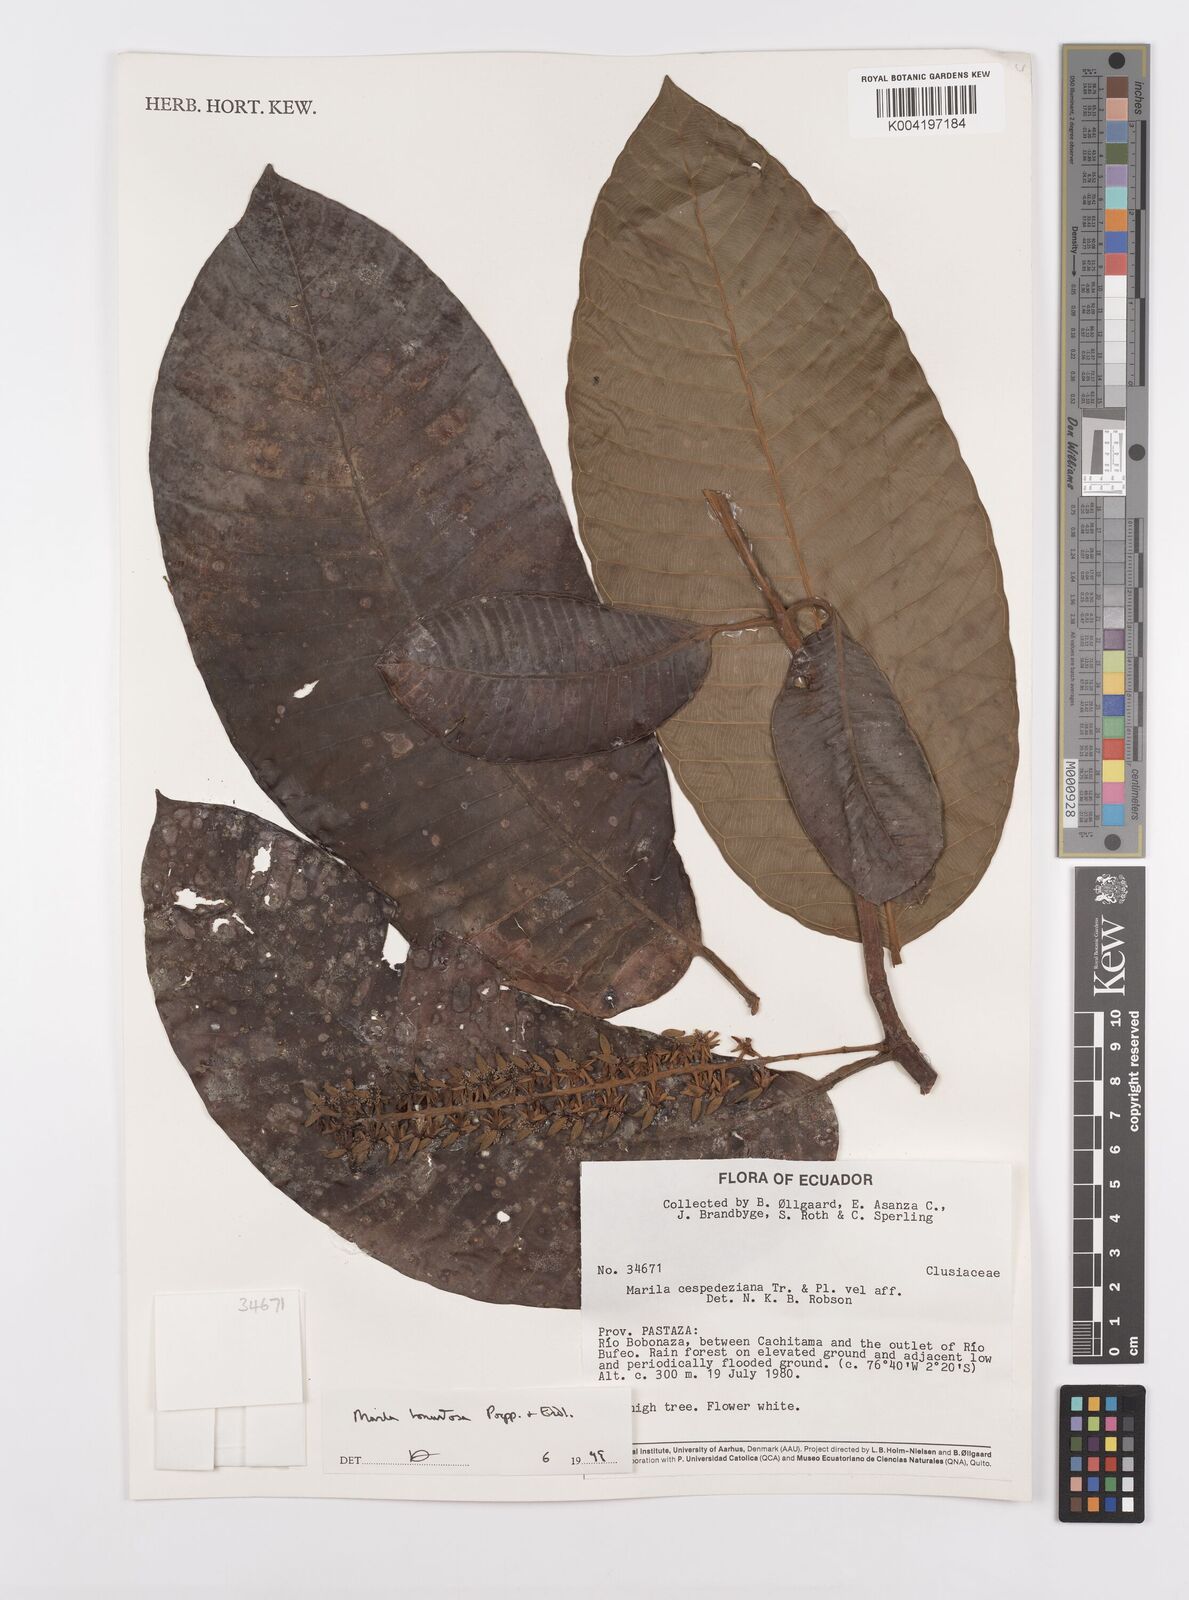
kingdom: Plantae
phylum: Tracheophyta
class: Magnoliopsida
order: Malpighiales
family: Calophyllaceae
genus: Marila
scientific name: Marila tomentosa
